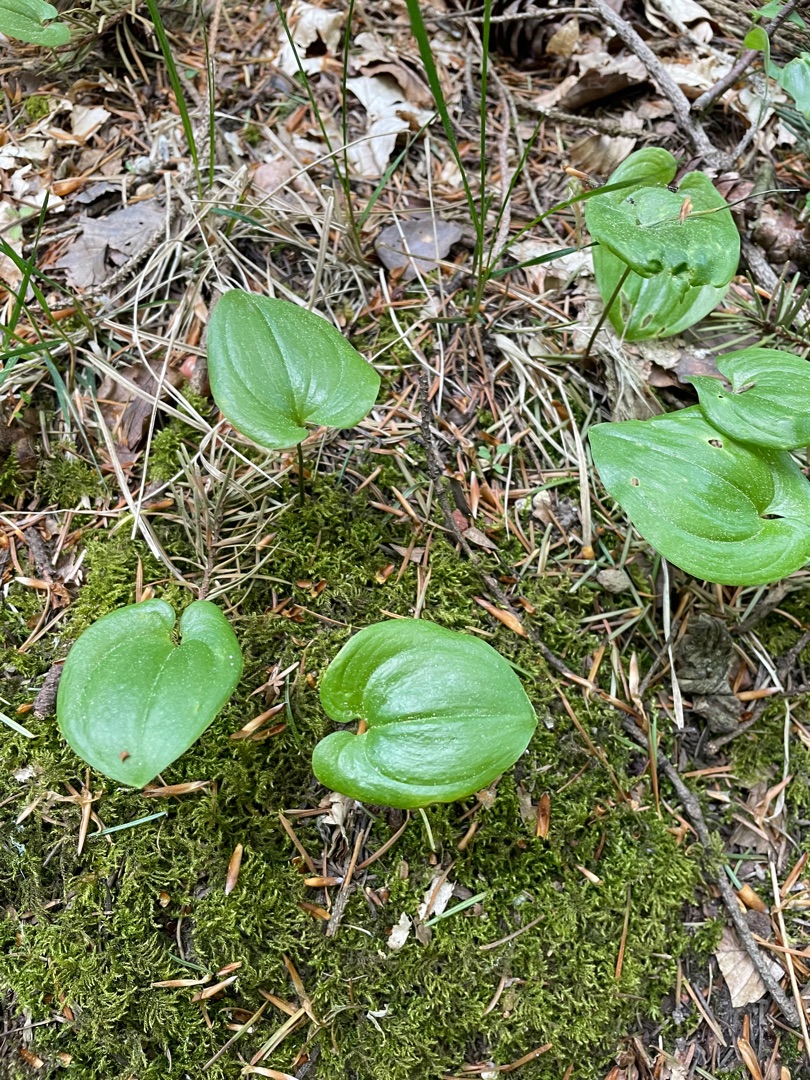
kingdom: Plantae
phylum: Tracheophyta
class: Liliopsida
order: Asparagales
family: Asparagaceae
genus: Maianthemum
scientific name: Maianthemum bifolium
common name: Majblomst
